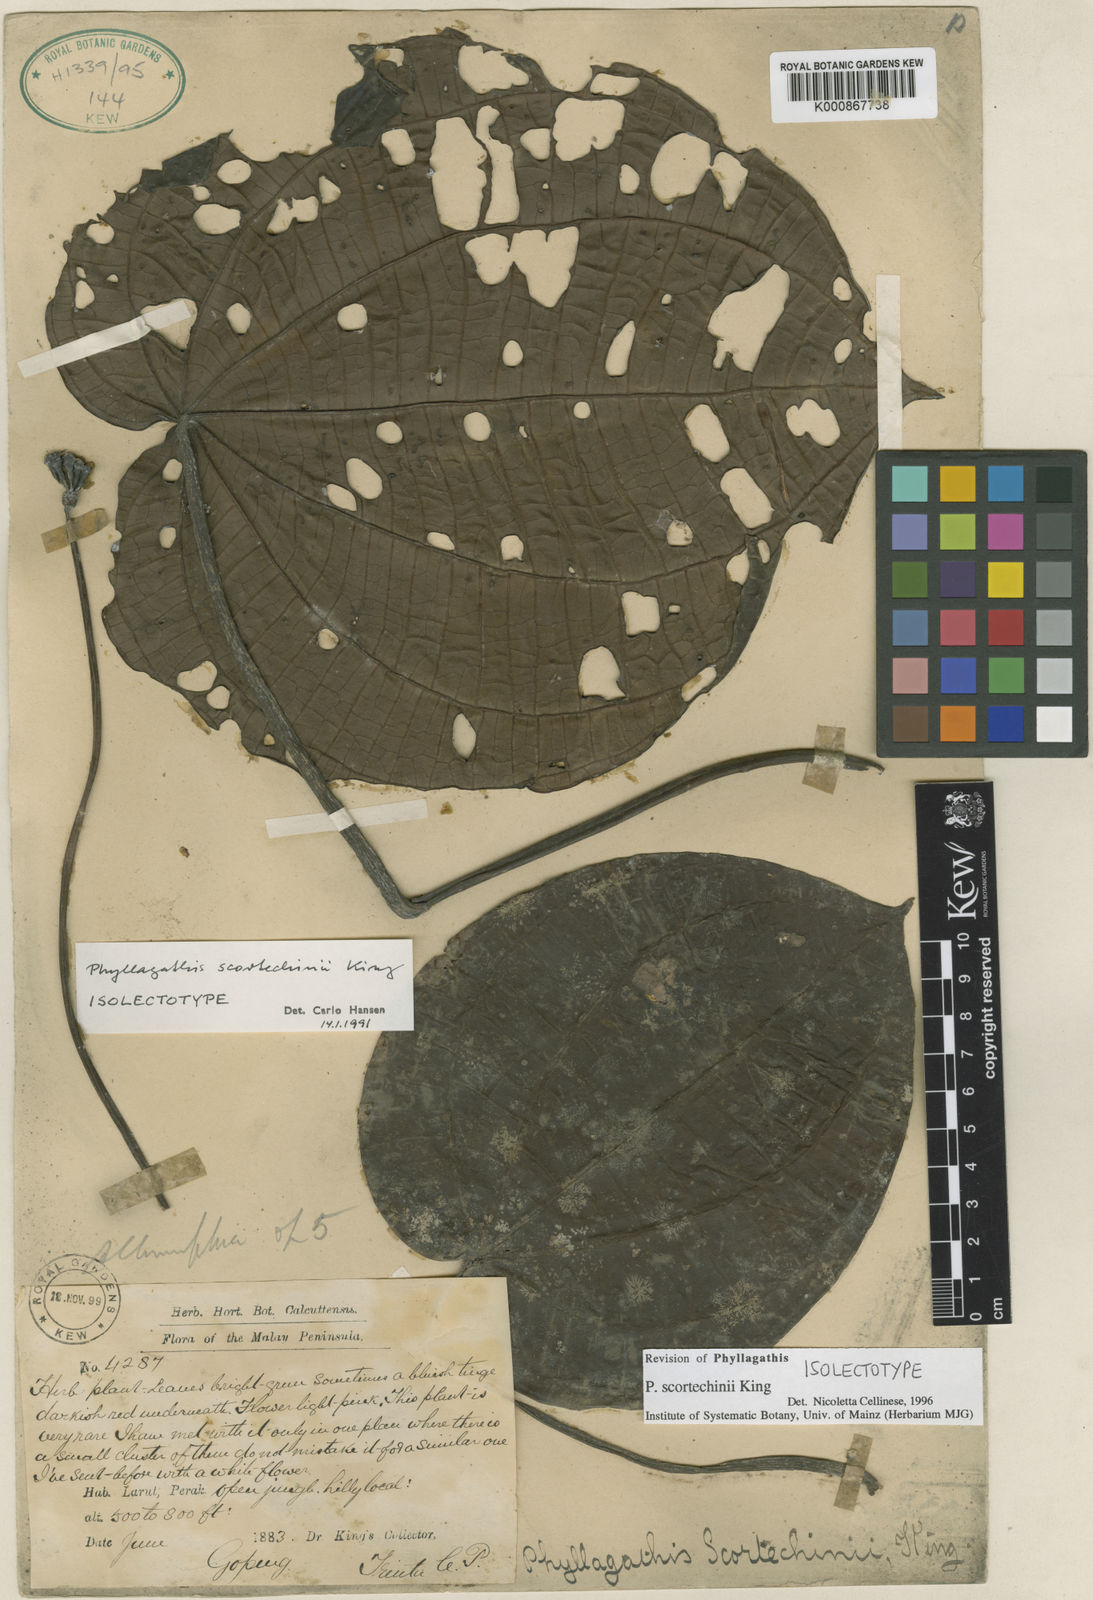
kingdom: Plantae
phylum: Tracheophyta
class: Magnoliopsida
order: Myrtales
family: Melastomataceae
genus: Phyllagathis
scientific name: Phyllagathis scortechinii
